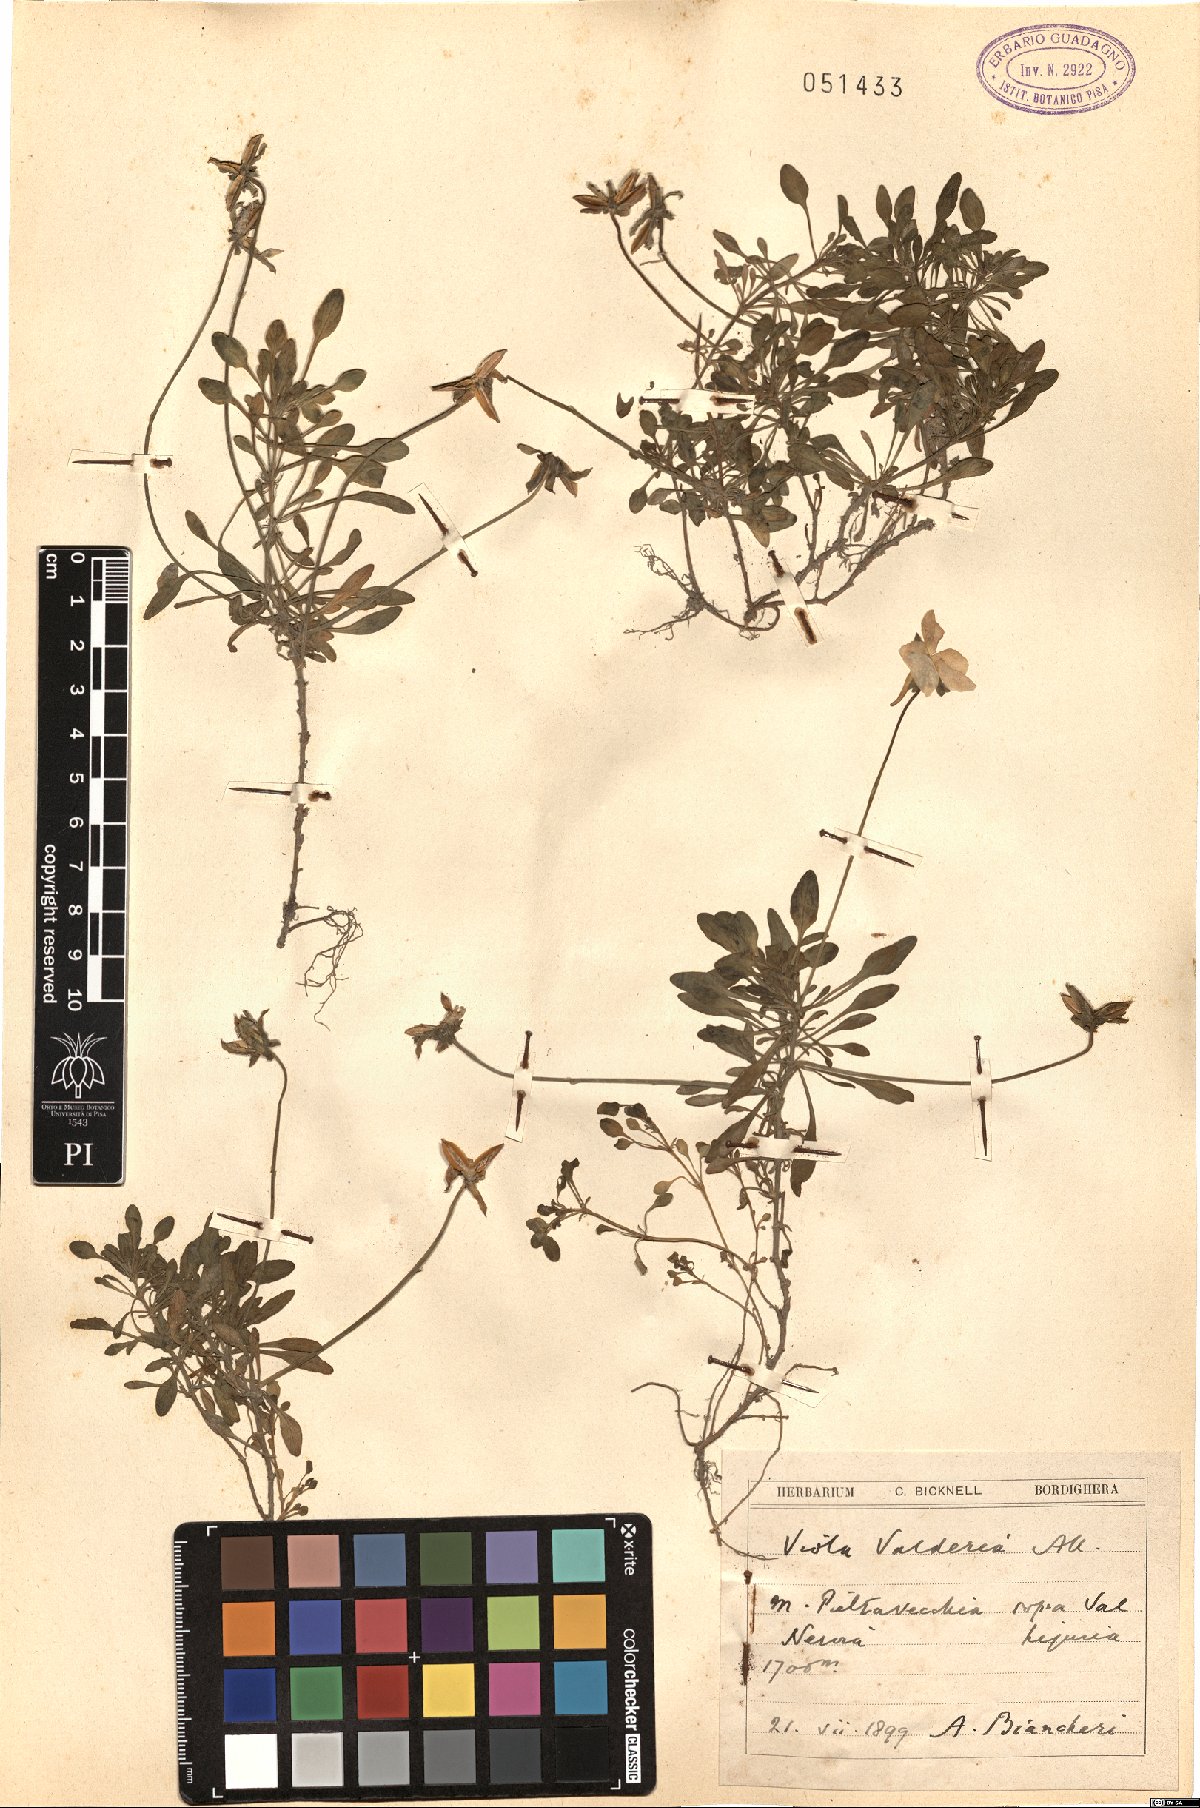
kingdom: Plantae
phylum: Tracheophyta
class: Magnoliopsida
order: Malpighiales
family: Violaceae
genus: Viola
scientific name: Viola valderia
